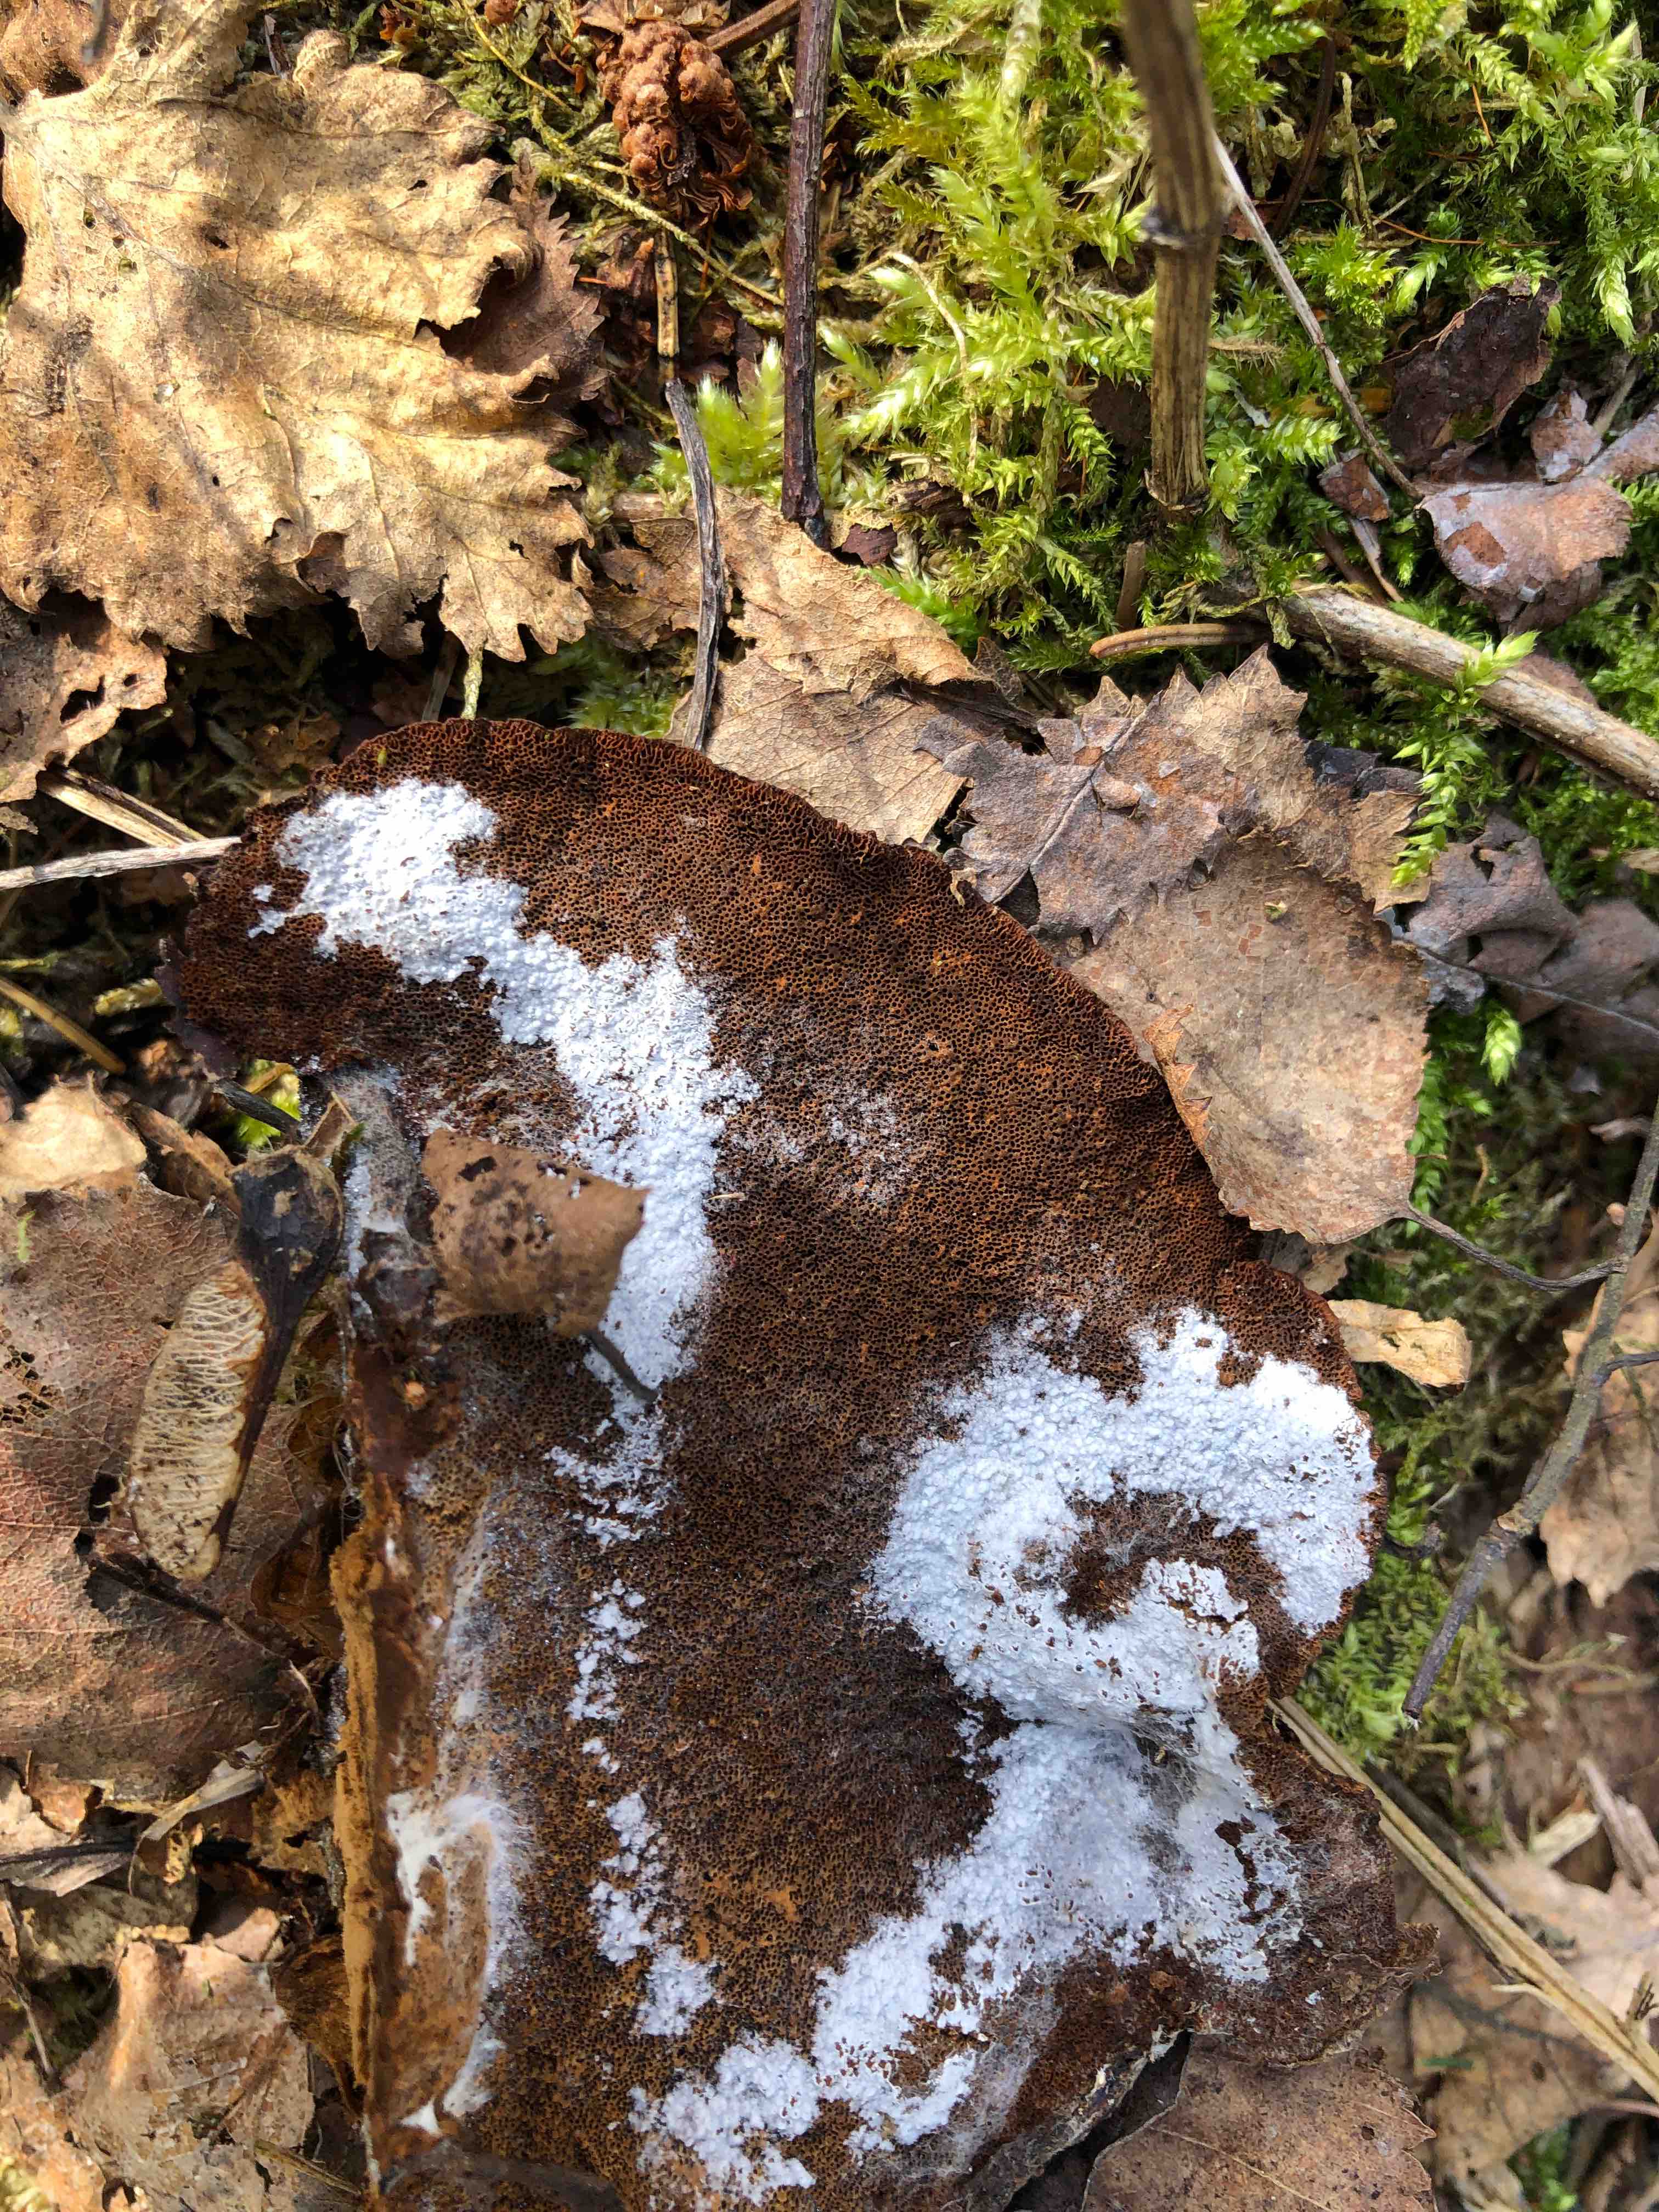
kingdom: Fungi
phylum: Basidiomycota
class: Agaricomycetes
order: Polyporales
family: Ischnodermataceae
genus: Ischnoderma
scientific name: Ischnoderma benzoinum
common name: gran-tjæreporesvamp
